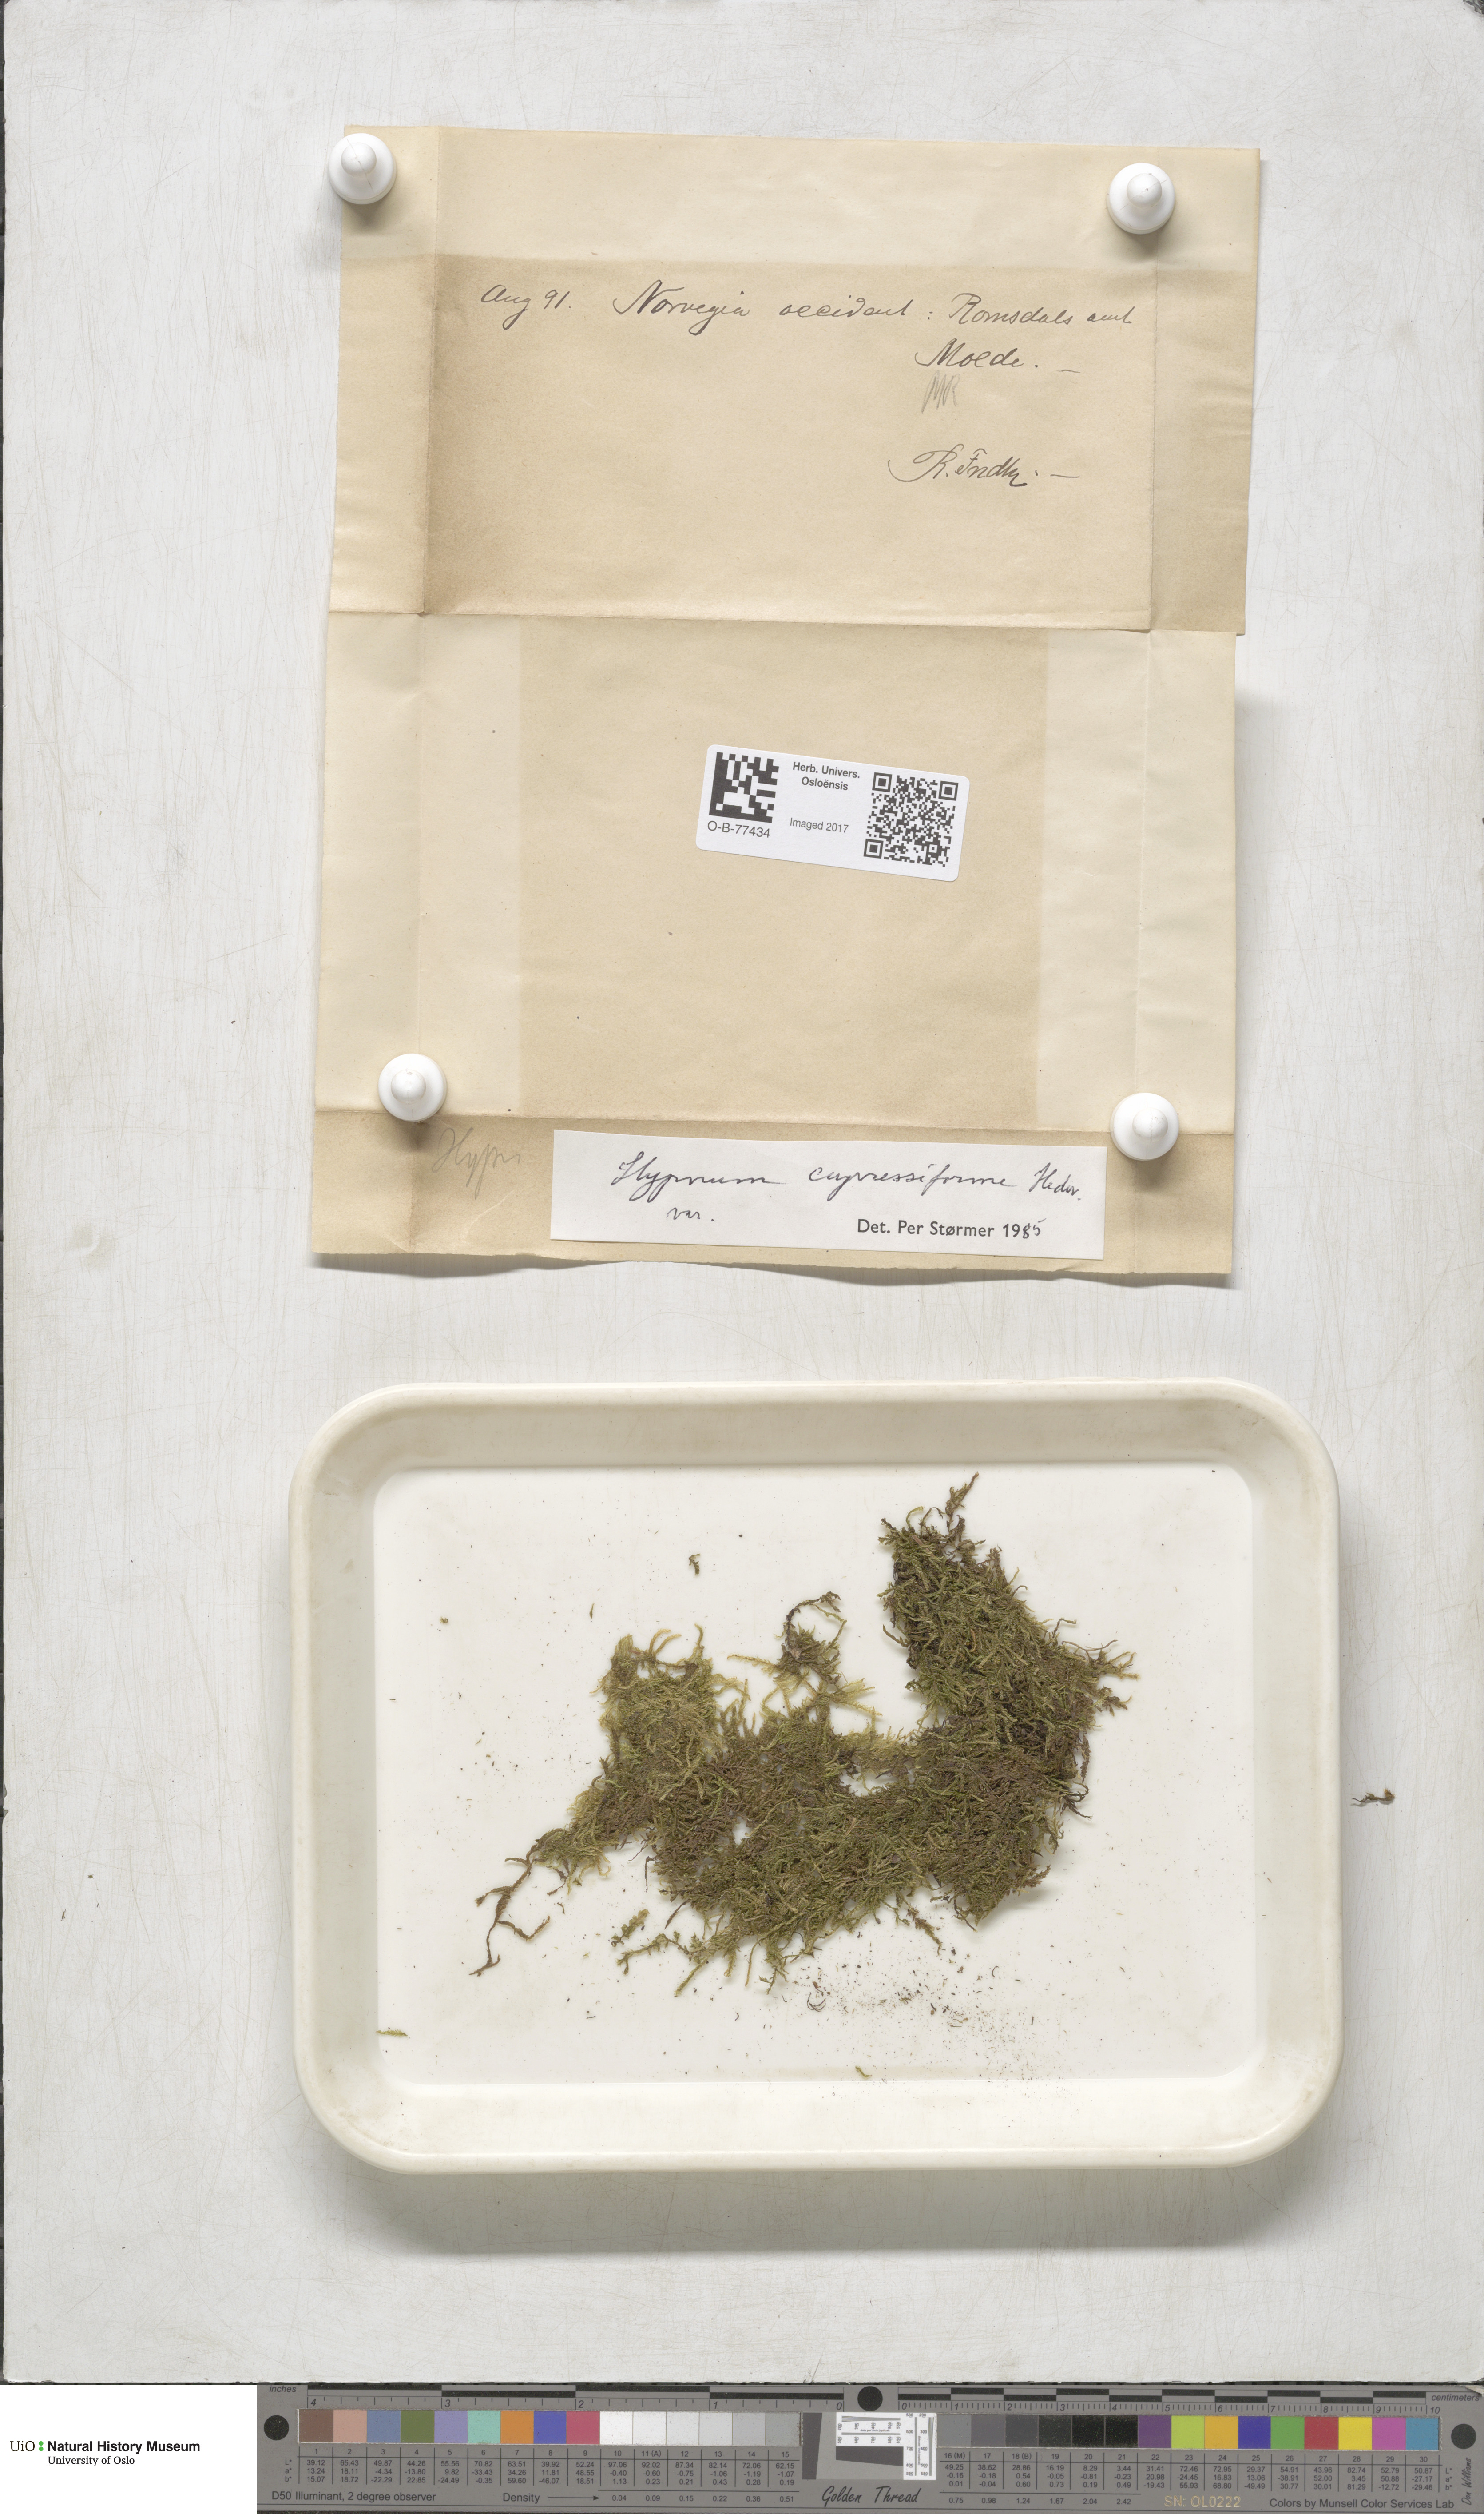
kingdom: Plantae
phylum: Bryophyta
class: Bryopsida
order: Hypnales
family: Hypnaceae
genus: Hypnum
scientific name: Hypnum cupressiforme
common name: Cypress-leaved plait-moss
